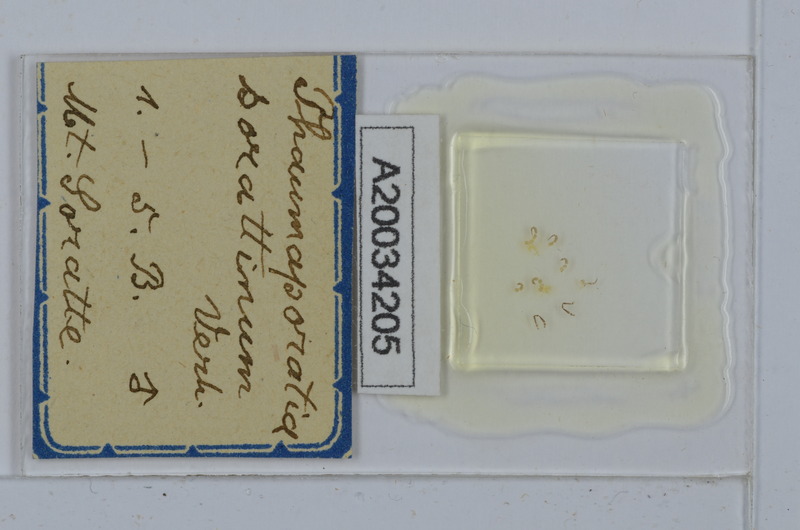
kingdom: Animalia
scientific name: Animalia
